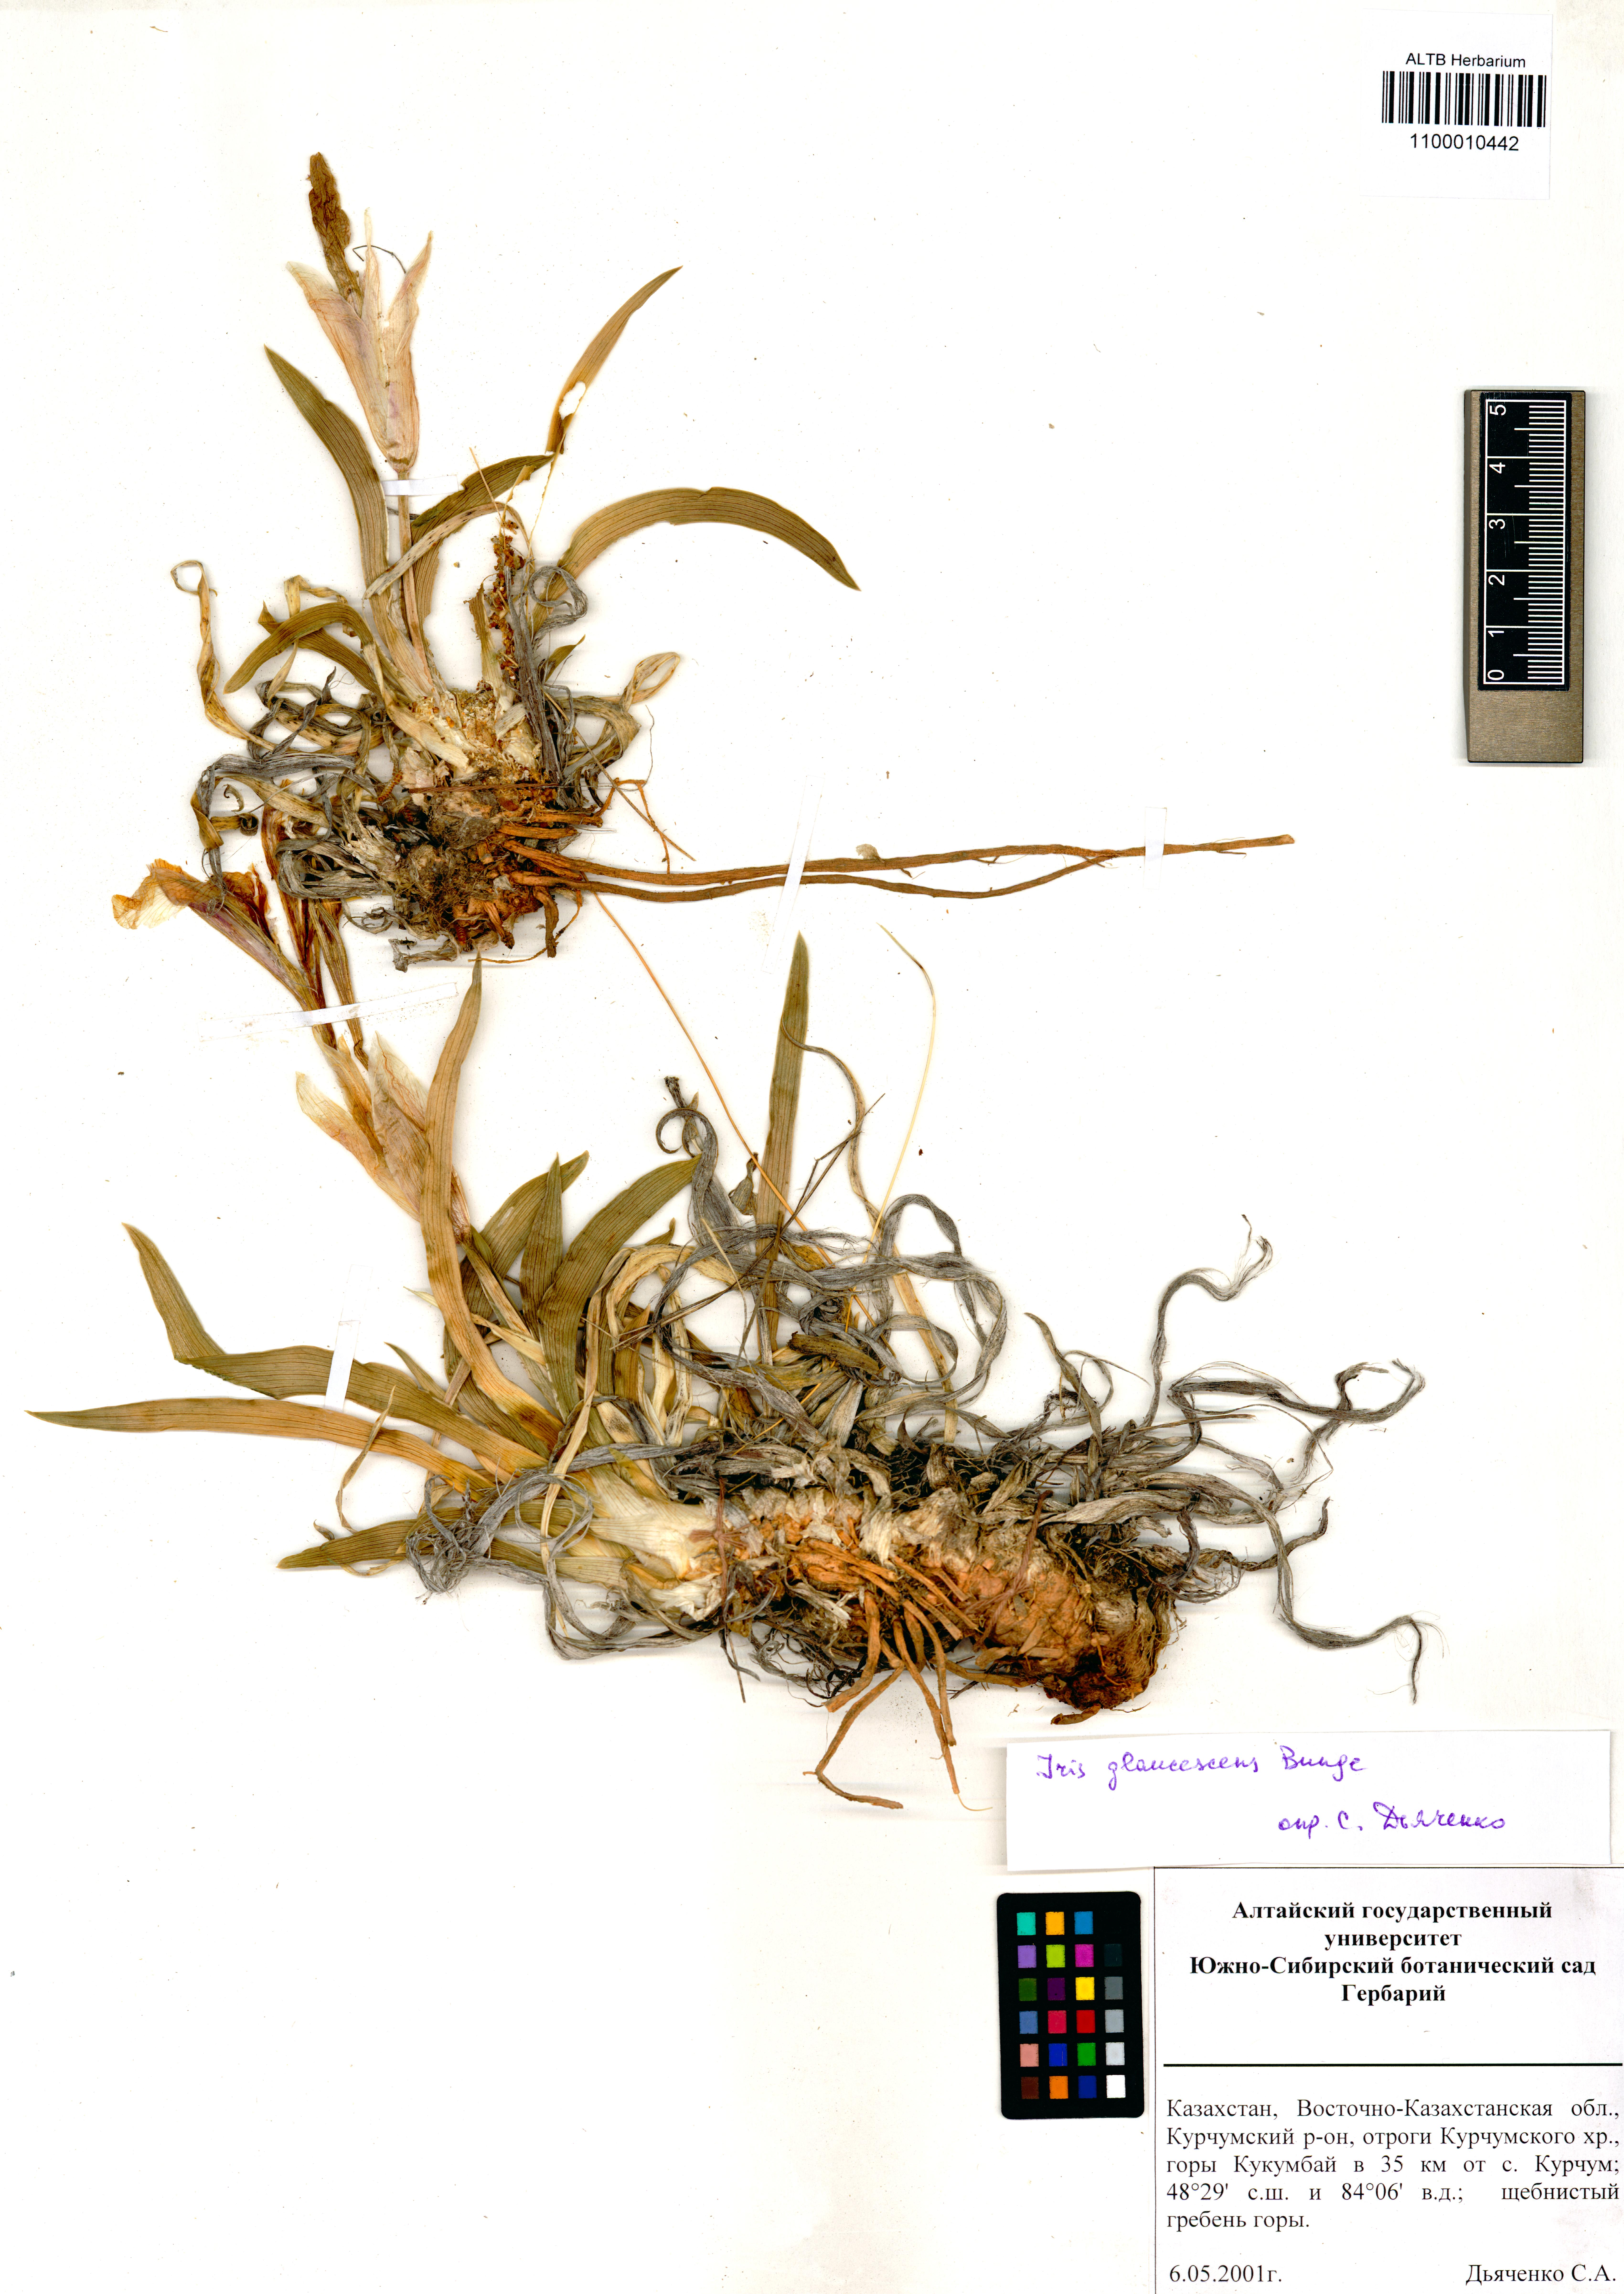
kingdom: Plantae
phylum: Tracheophyta
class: Liliopsida
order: Asparagales
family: Iridaceae
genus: Iris
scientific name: Iris glaucescens
